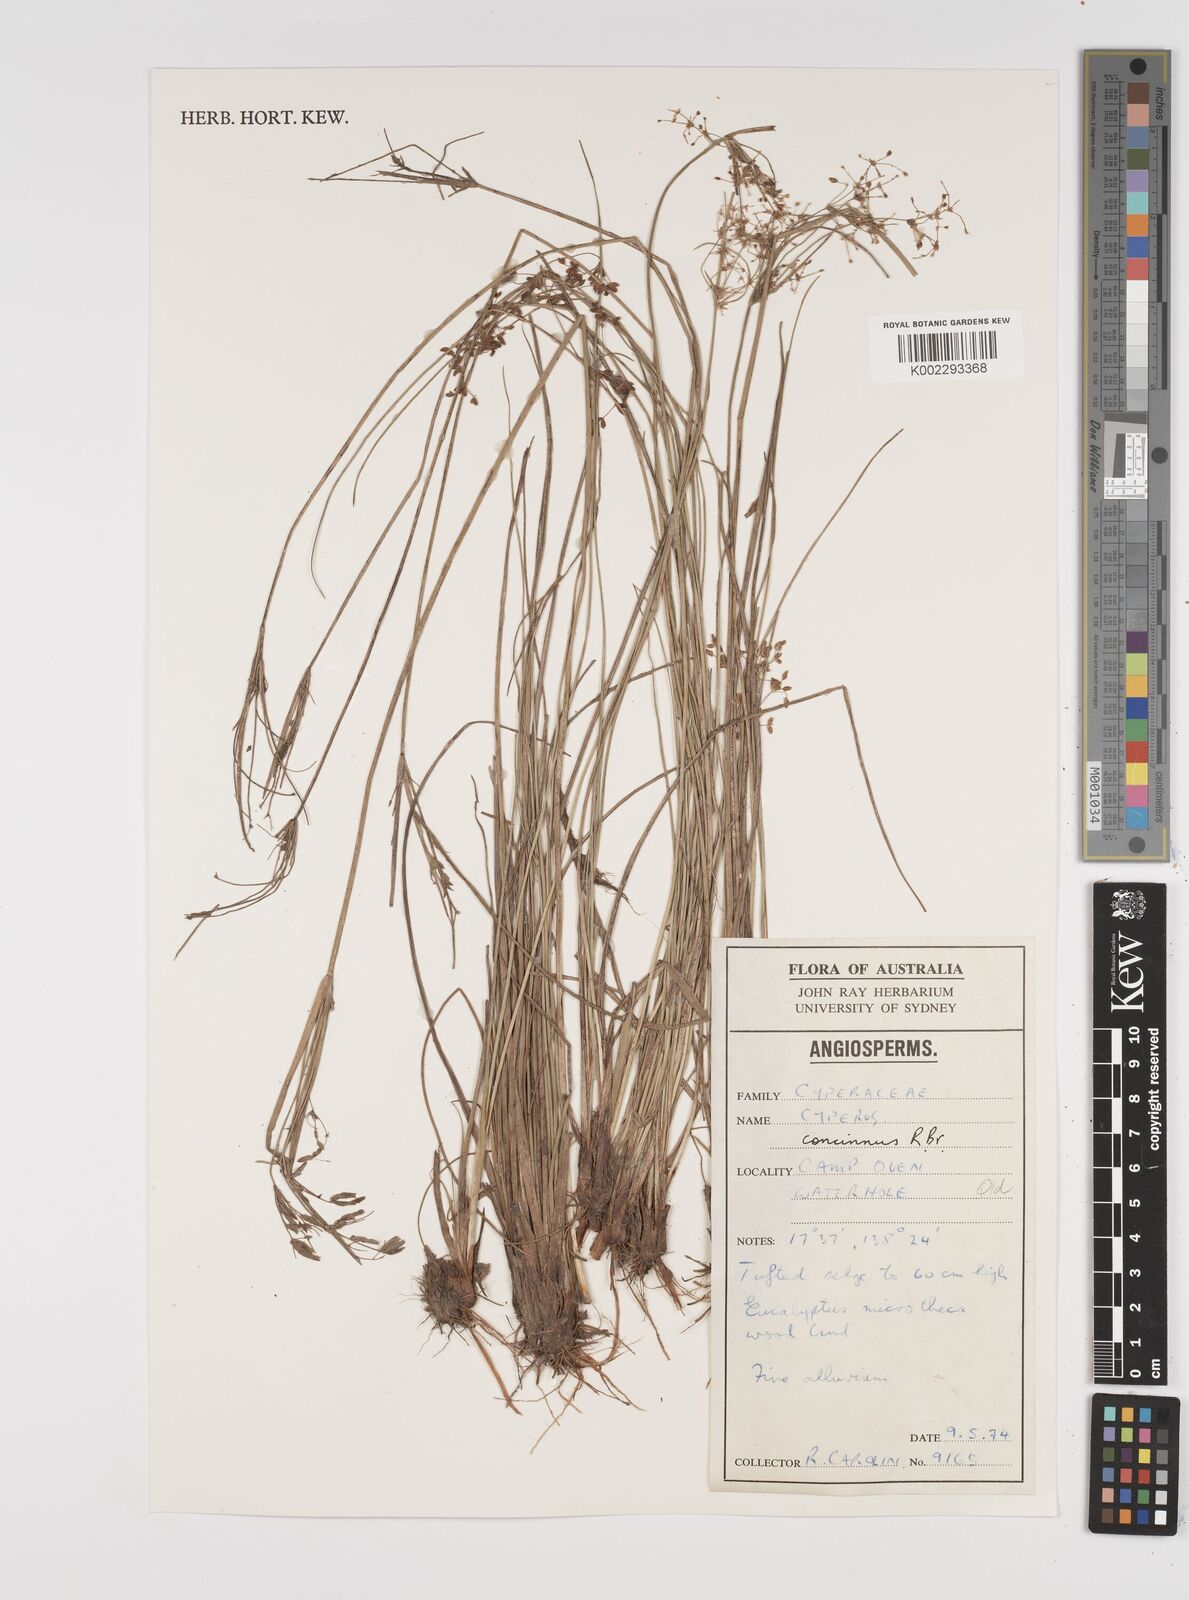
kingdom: Plantae
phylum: Tracheophyta
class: Liliopsida
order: Poales
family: Cyperaceae
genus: Cyperus
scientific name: Cyperus concinnus
